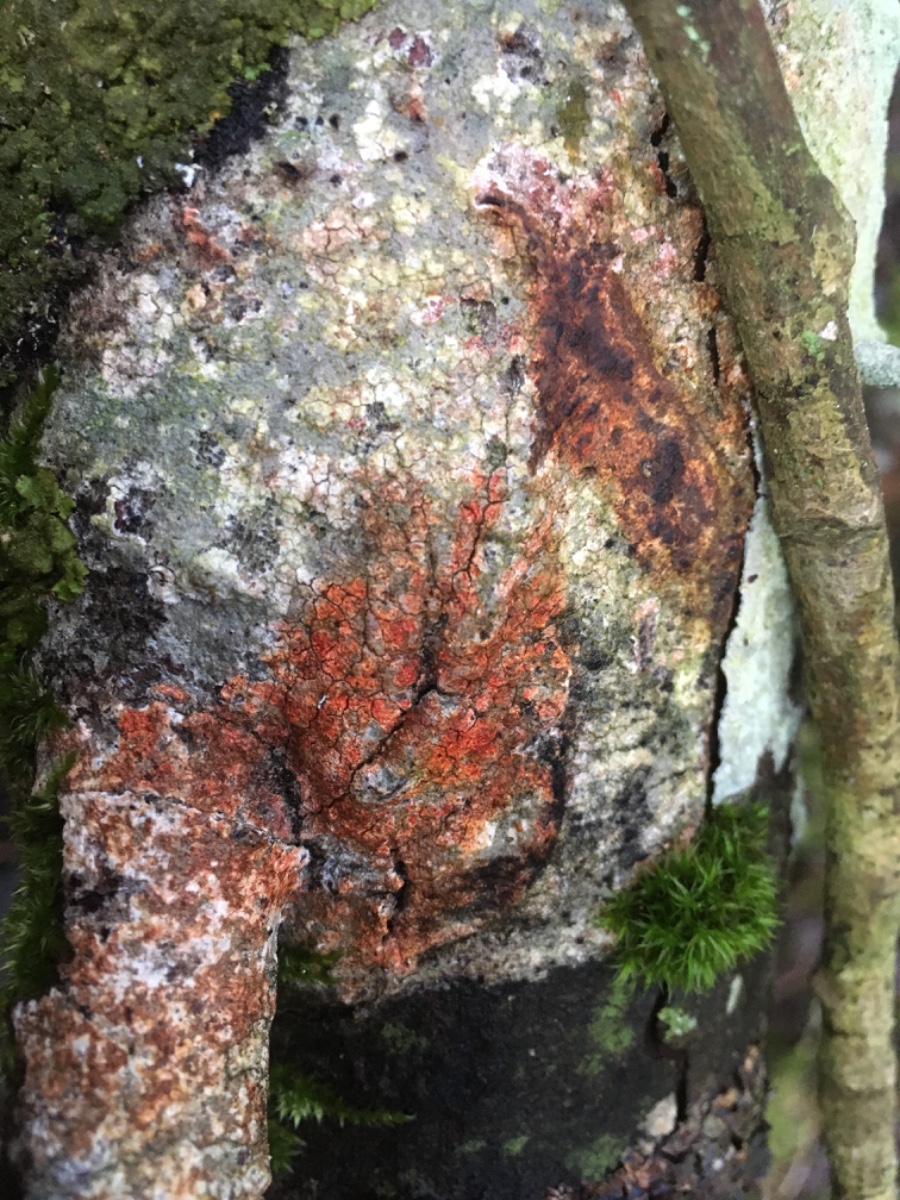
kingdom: Fungi
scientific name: Fungi
